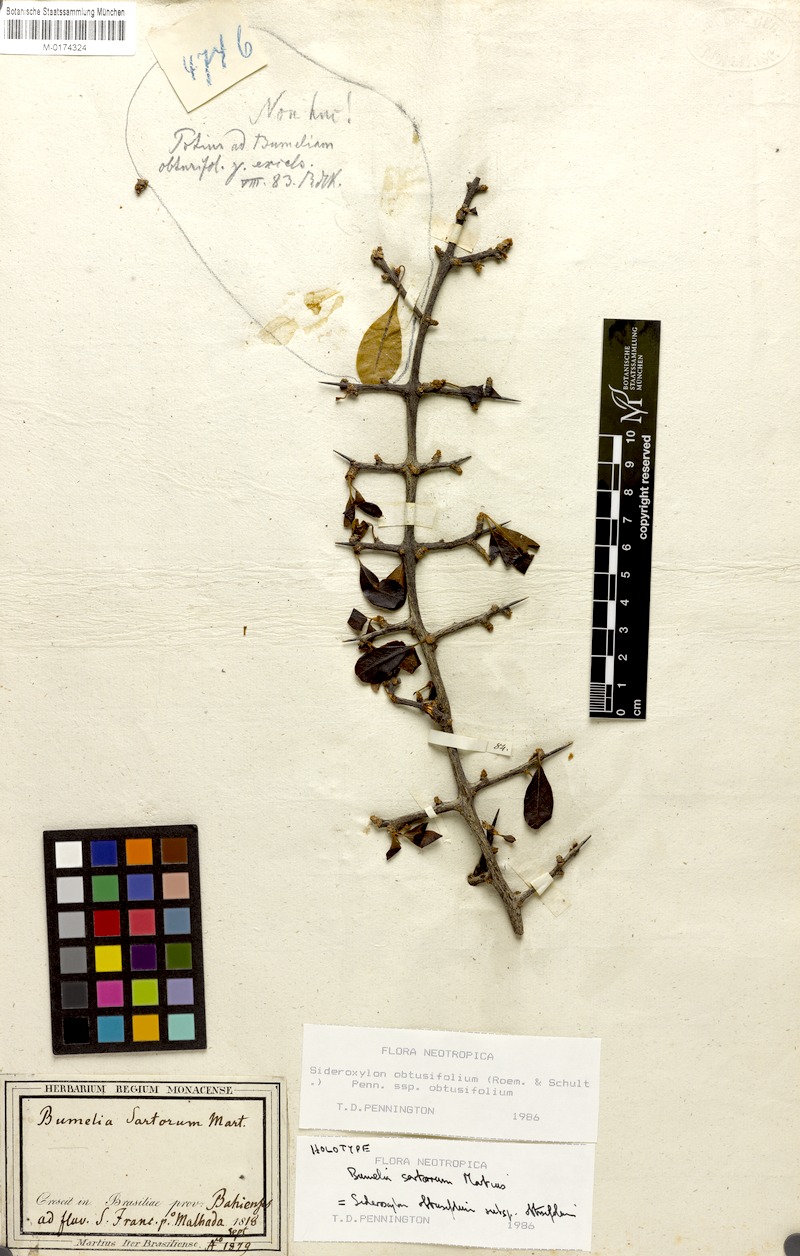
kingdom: Plantae
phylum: Tracheophyta
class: Magnoliopsida
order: Ericales
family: Sapotaceae
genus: Sideroxylon
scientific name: Sideroxylon obtusifolium
